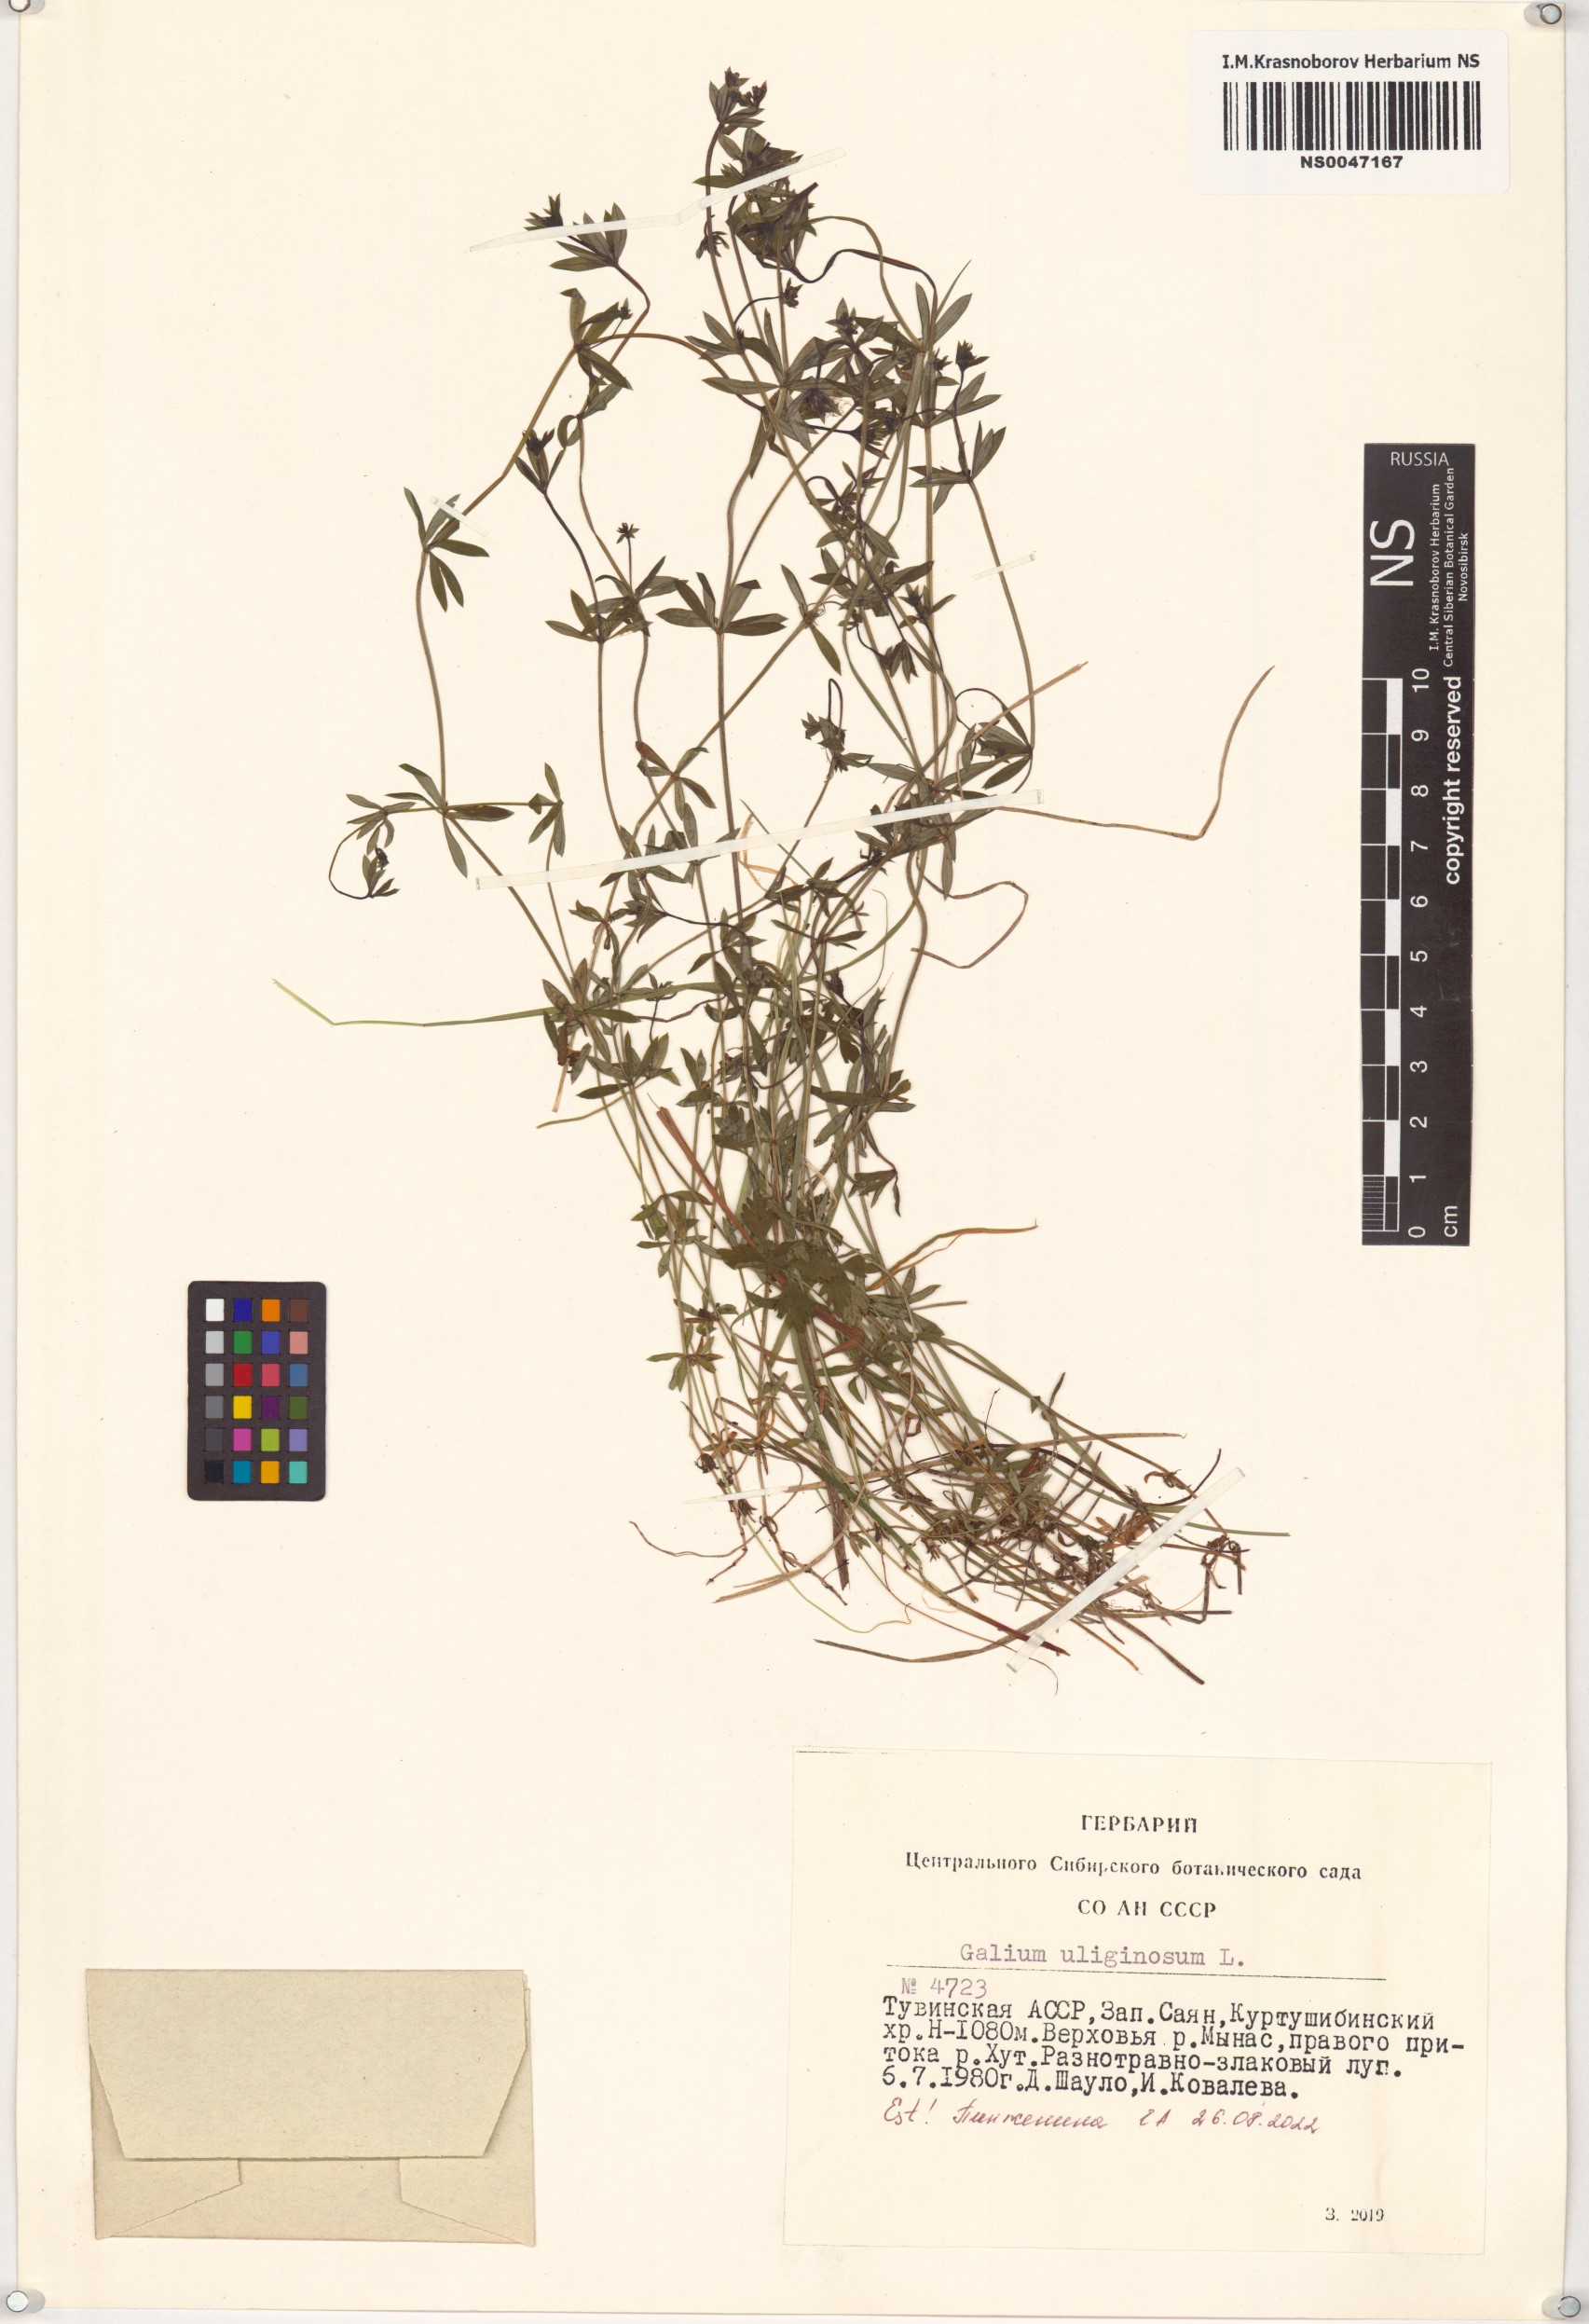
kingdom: Plantae
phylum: Tracheophyta
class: Magnoliopsida
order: Gentianales
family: Rubiaceae
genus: Galium
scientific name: Galium uliginosum
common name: Fen bedstraw
